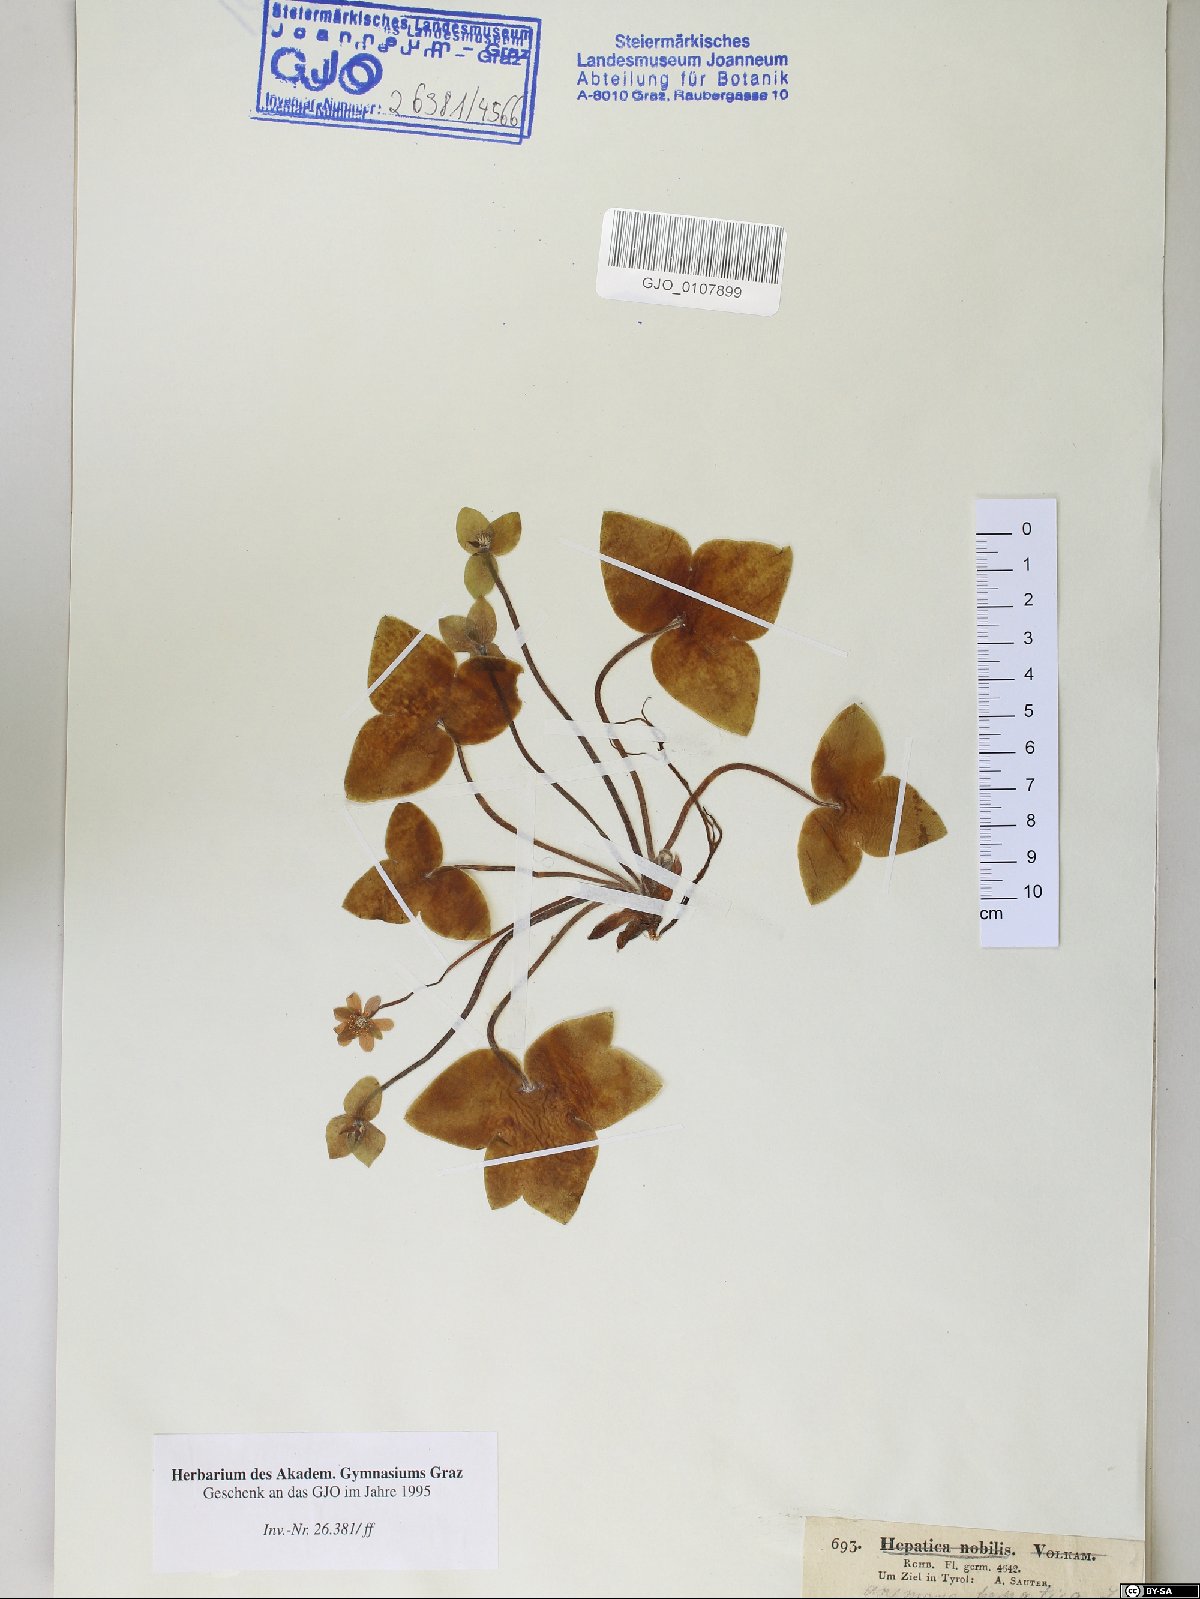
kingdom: Plantae
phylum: Tracheophyta
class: Magnoliopsida
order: Ranunculales
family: Ranunculaceae
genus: Hepatica
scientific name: Hepatica nobilis
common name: Liverleaf
